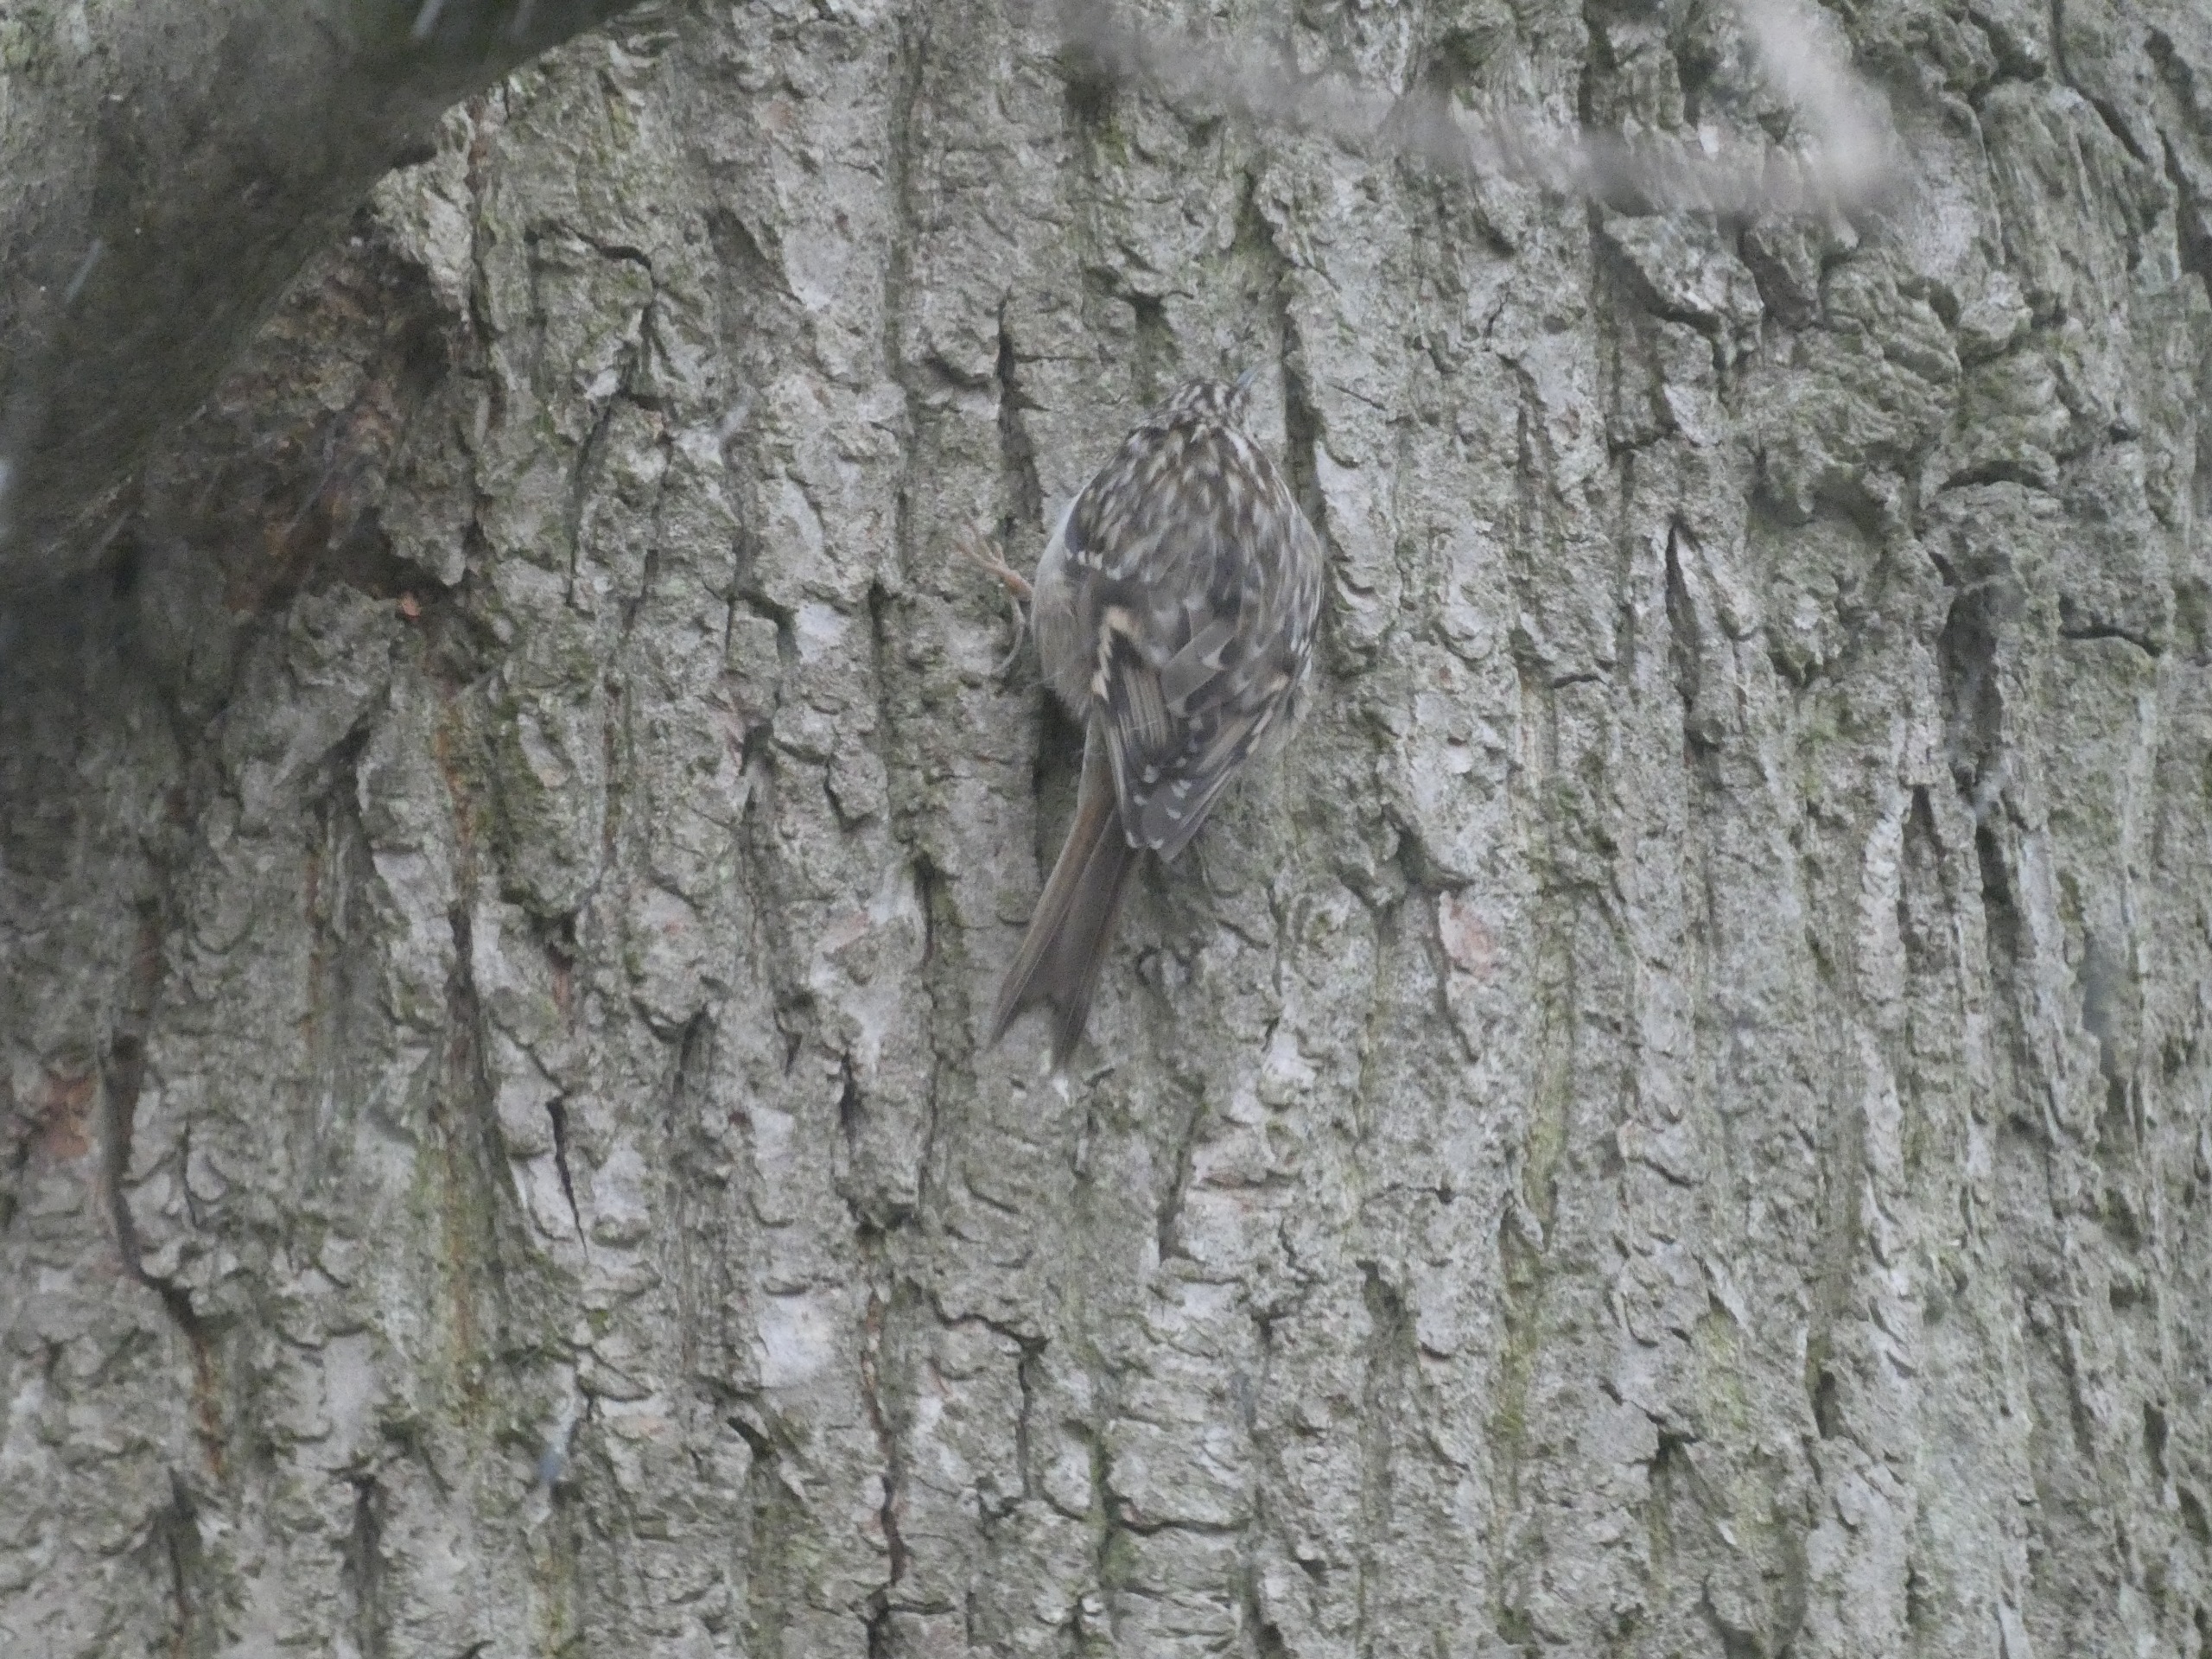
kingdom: Animalia
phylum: Chordata
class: Aves
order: Passeriformes
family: Certhiidae
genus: Certhia
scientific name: Certhia brachydactyla
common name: Korttået træløber
